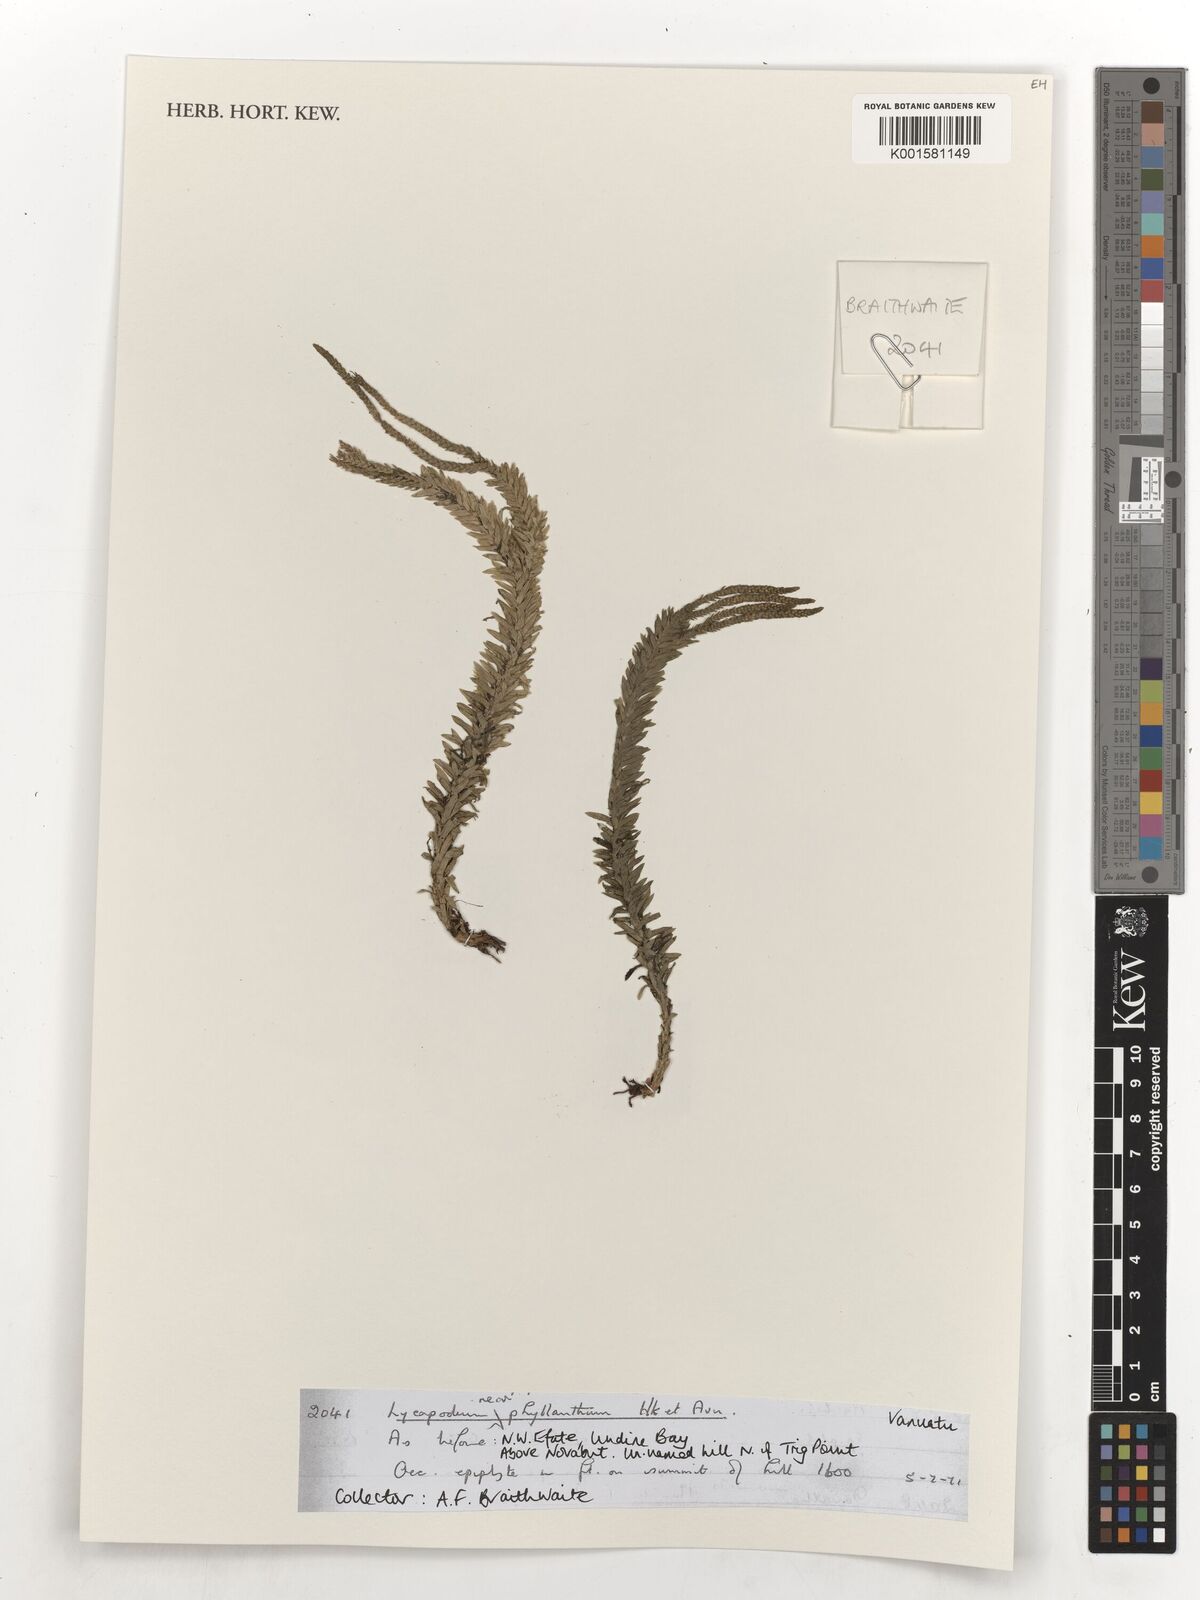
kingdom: Plantae
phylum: Tracheophyta
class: Lycopodiopsida
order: Lycopodiales
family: Lycopodiaceae
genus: Phlegmariurus
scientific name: Phlegmariurus phyllanthus
